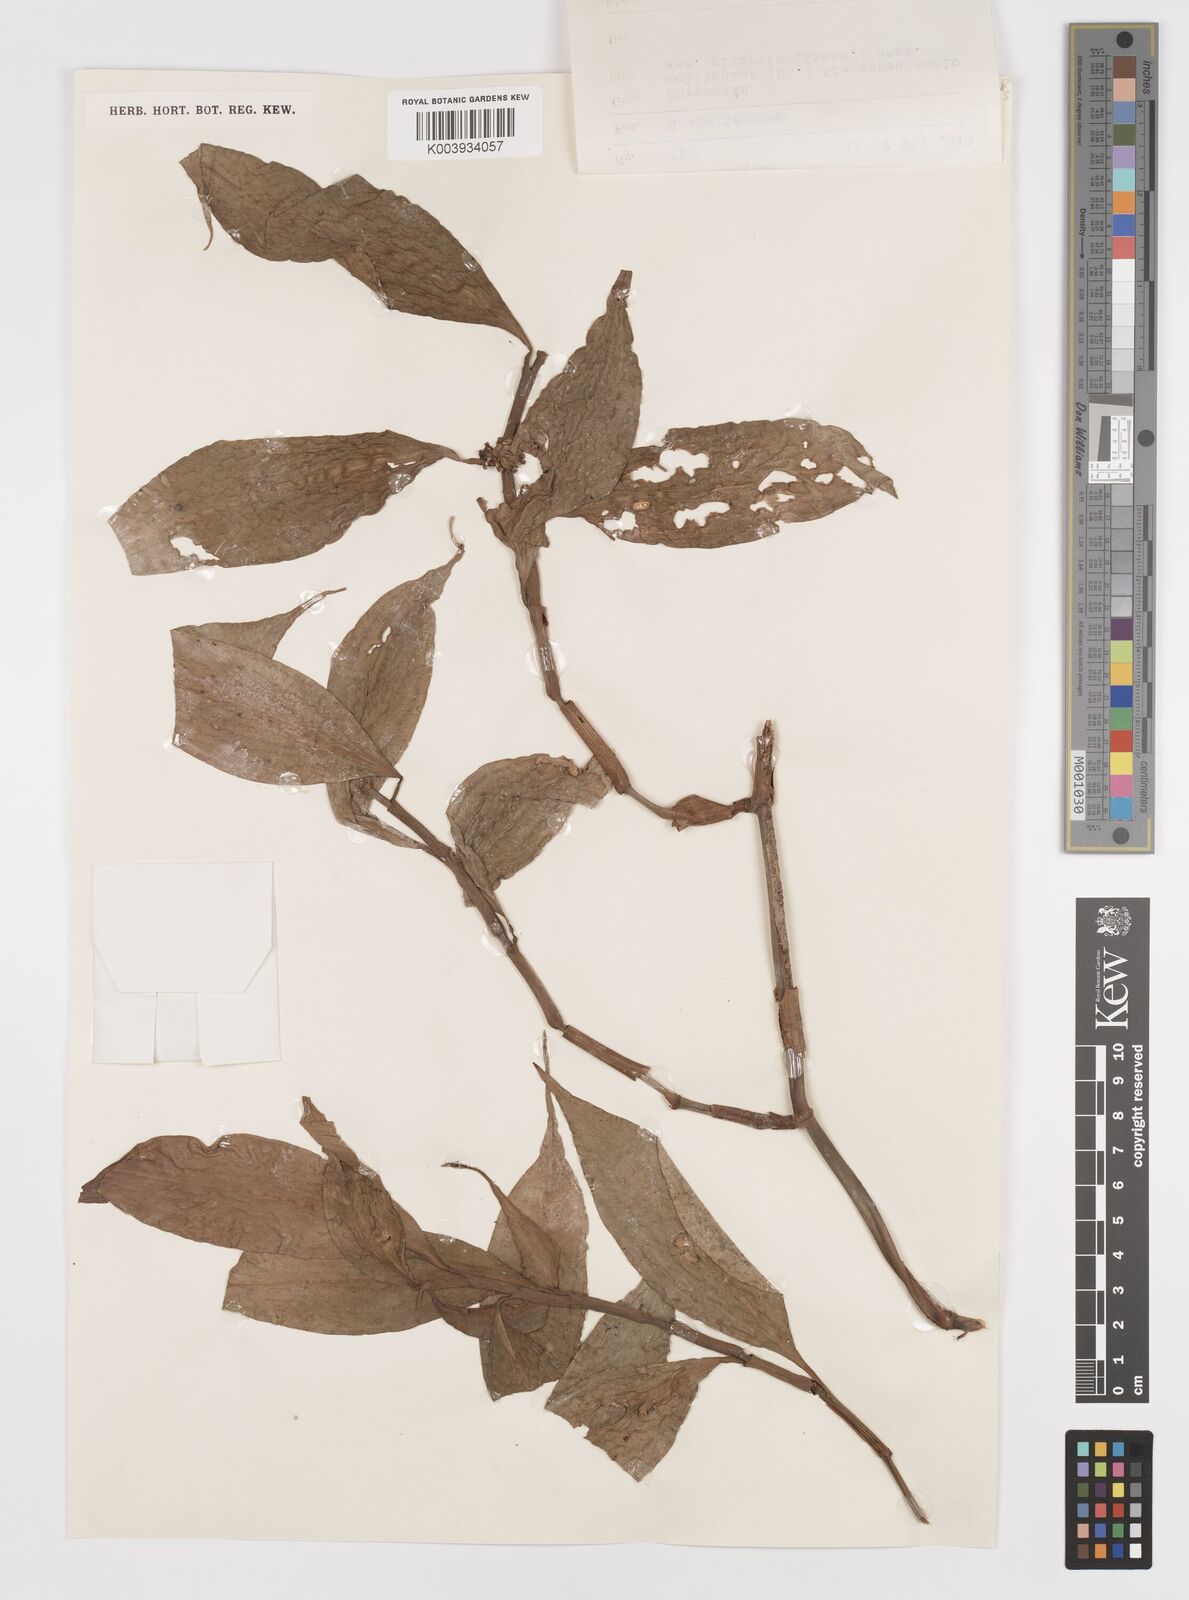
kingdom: Plantae
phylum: Tracheophyta
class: Liliopsida
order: Commelinales
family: Commelinaceae
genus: Amischotolype
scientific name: Amischotolype glabrata
